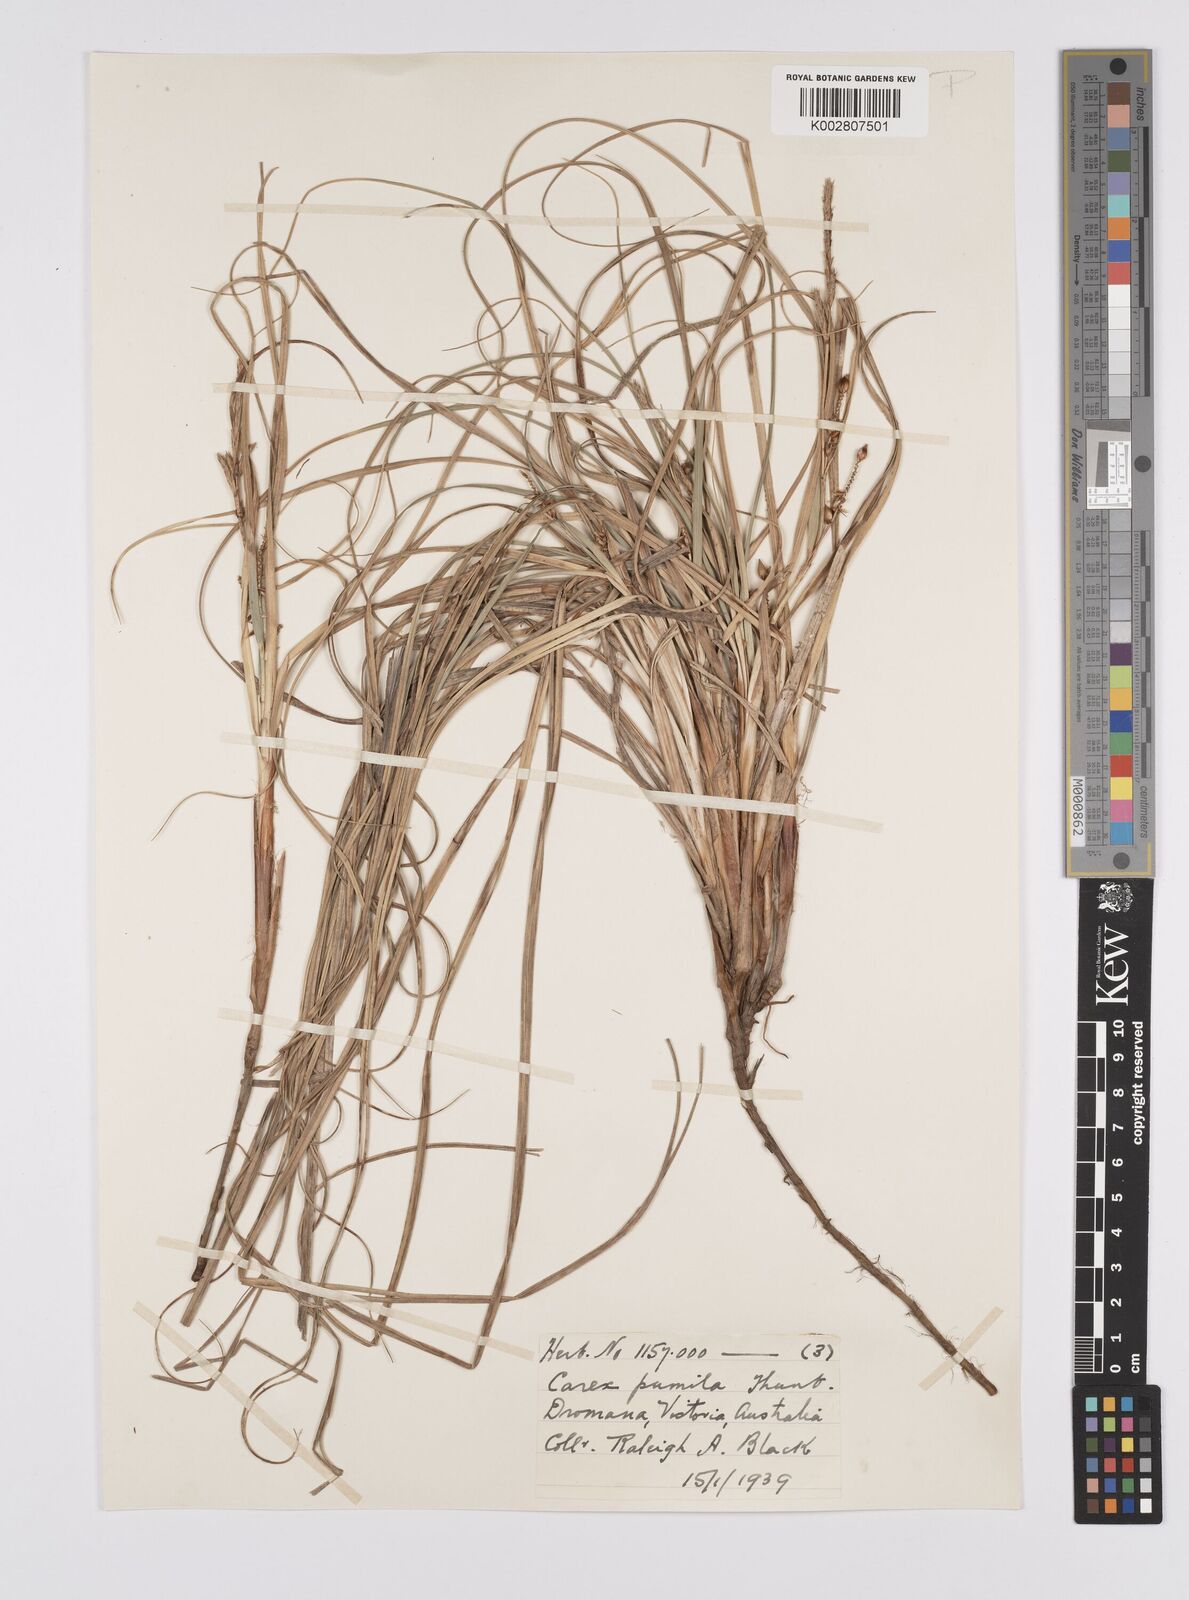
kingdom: Plantae
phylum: Tracheophyta
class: Liliopsida
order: Poales
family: Cyperaceae
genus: Carex
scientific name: Carex pumila
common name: Dwarf sedge
